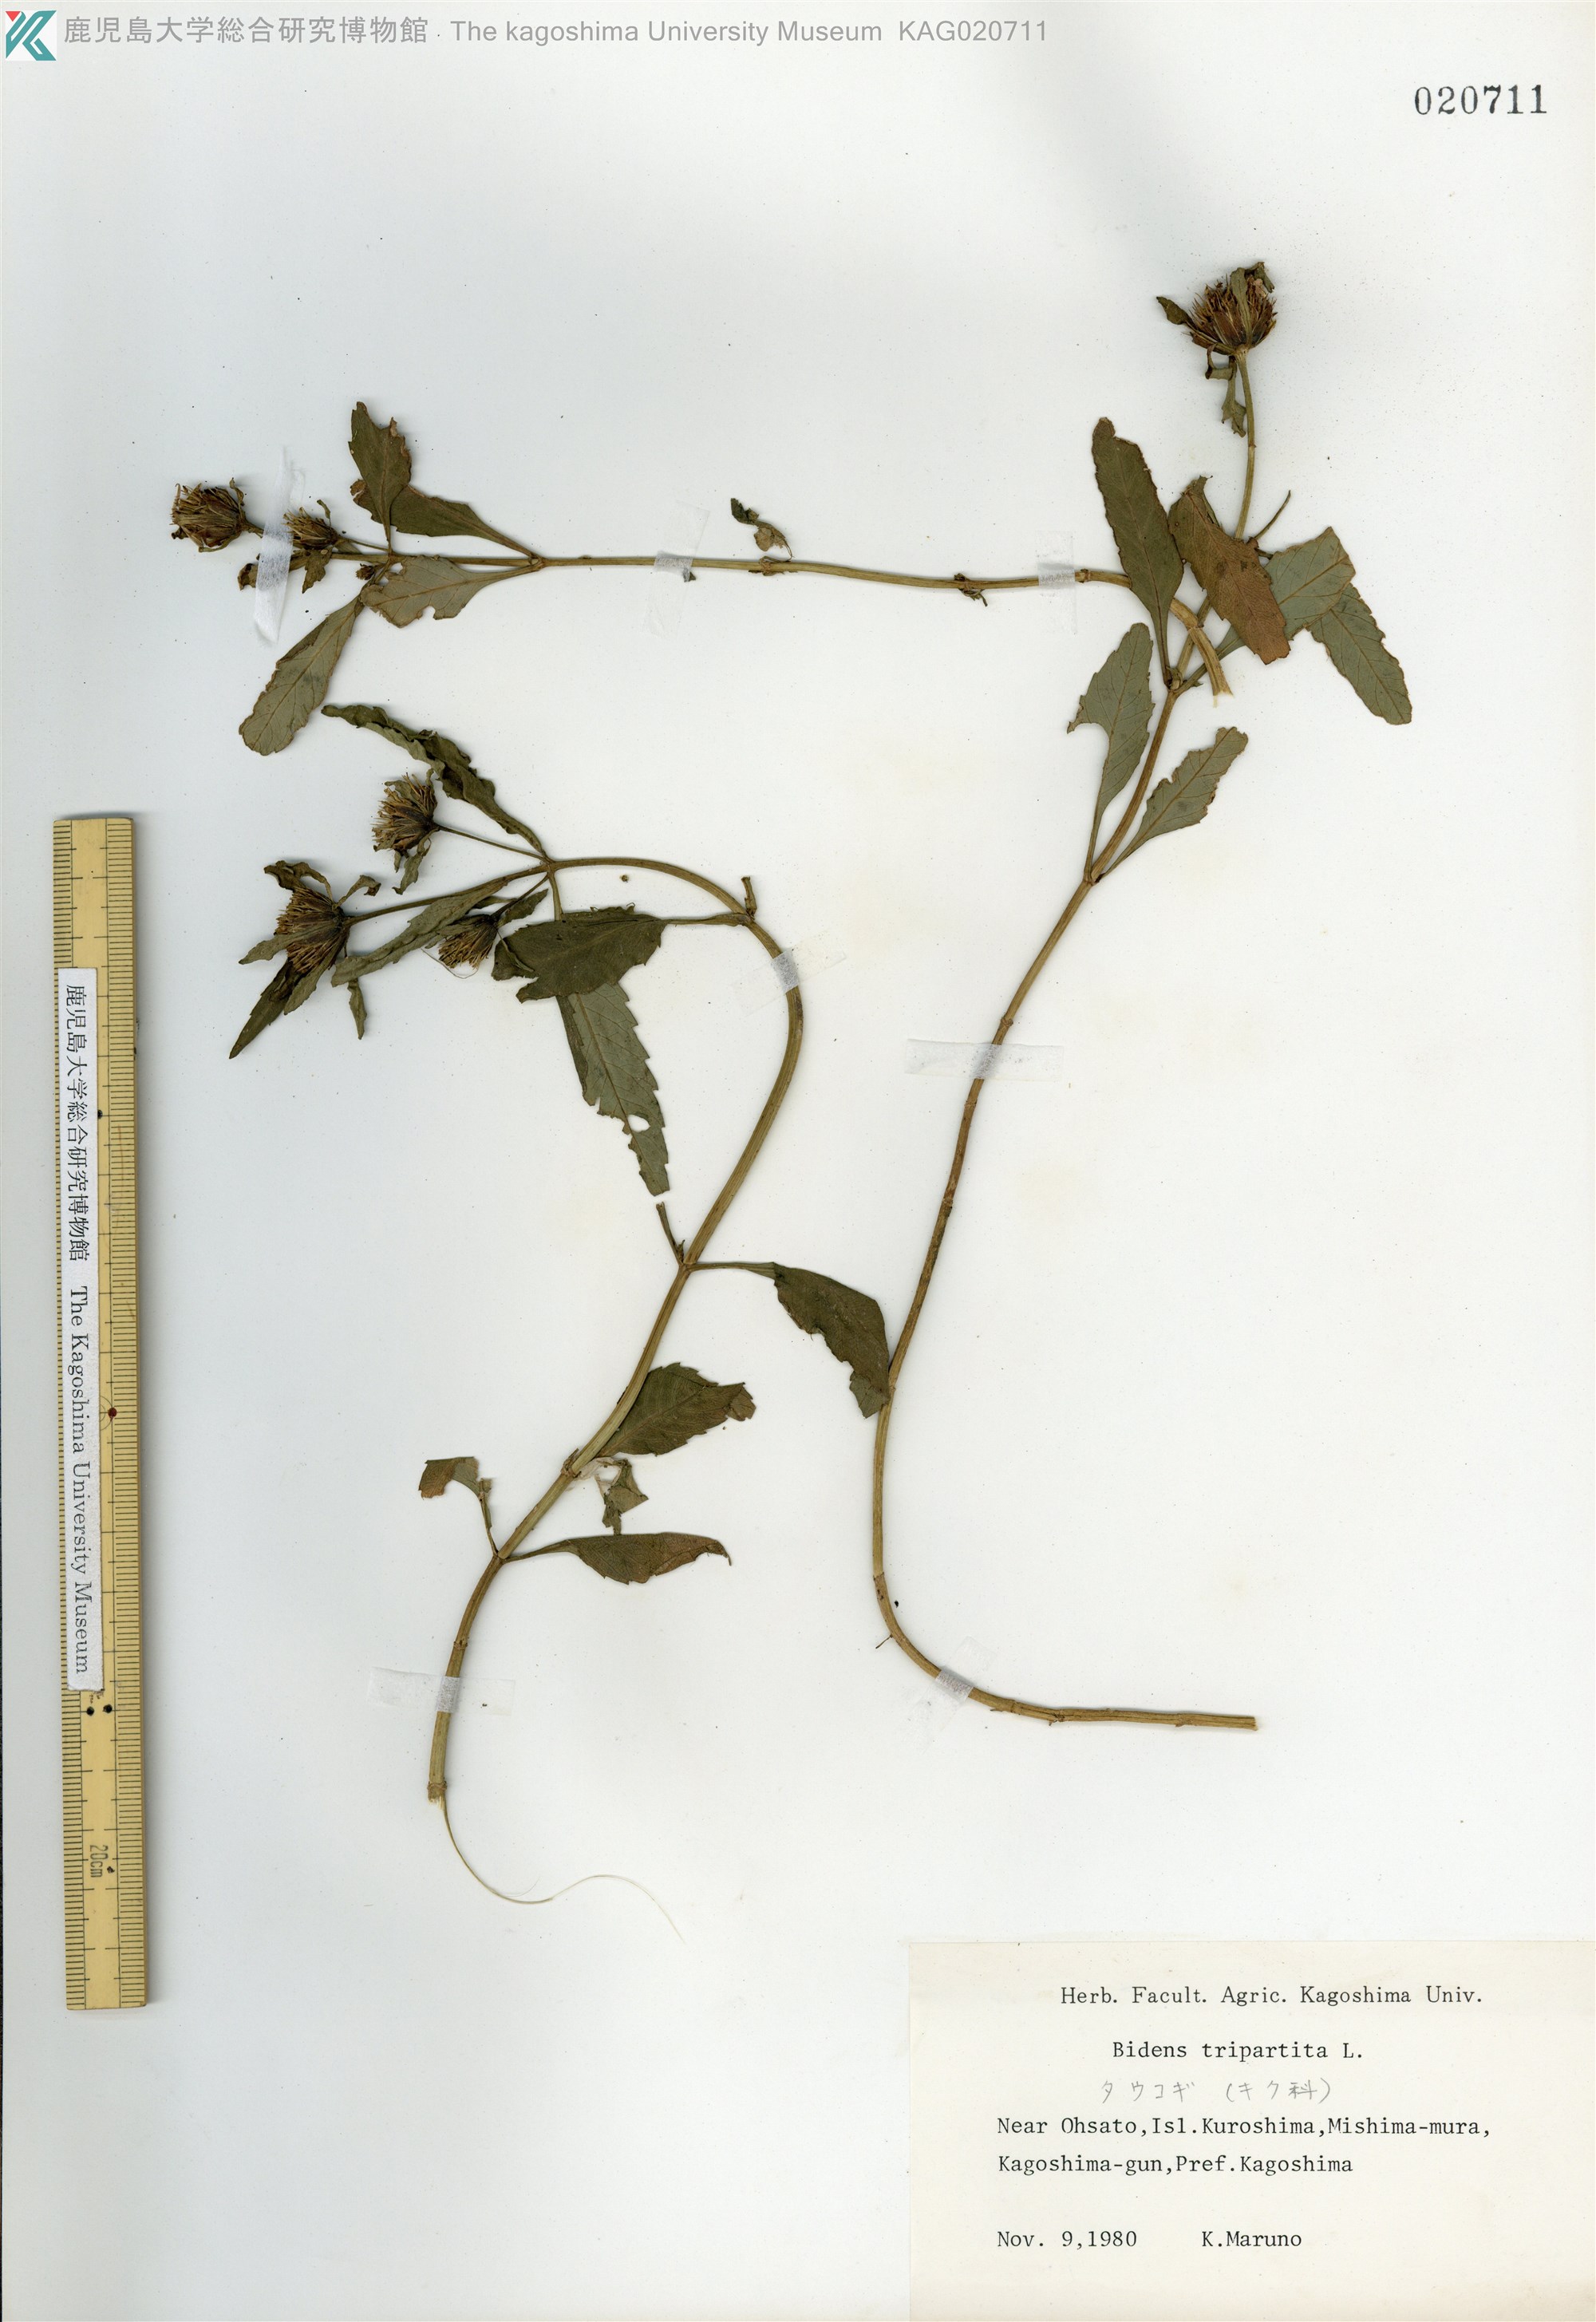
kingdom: Plantae
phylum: Tracheophyta
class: Magnoliopsida
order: Asterales
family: Asteraceae
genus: Bidens
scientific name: Bidens tripartita
